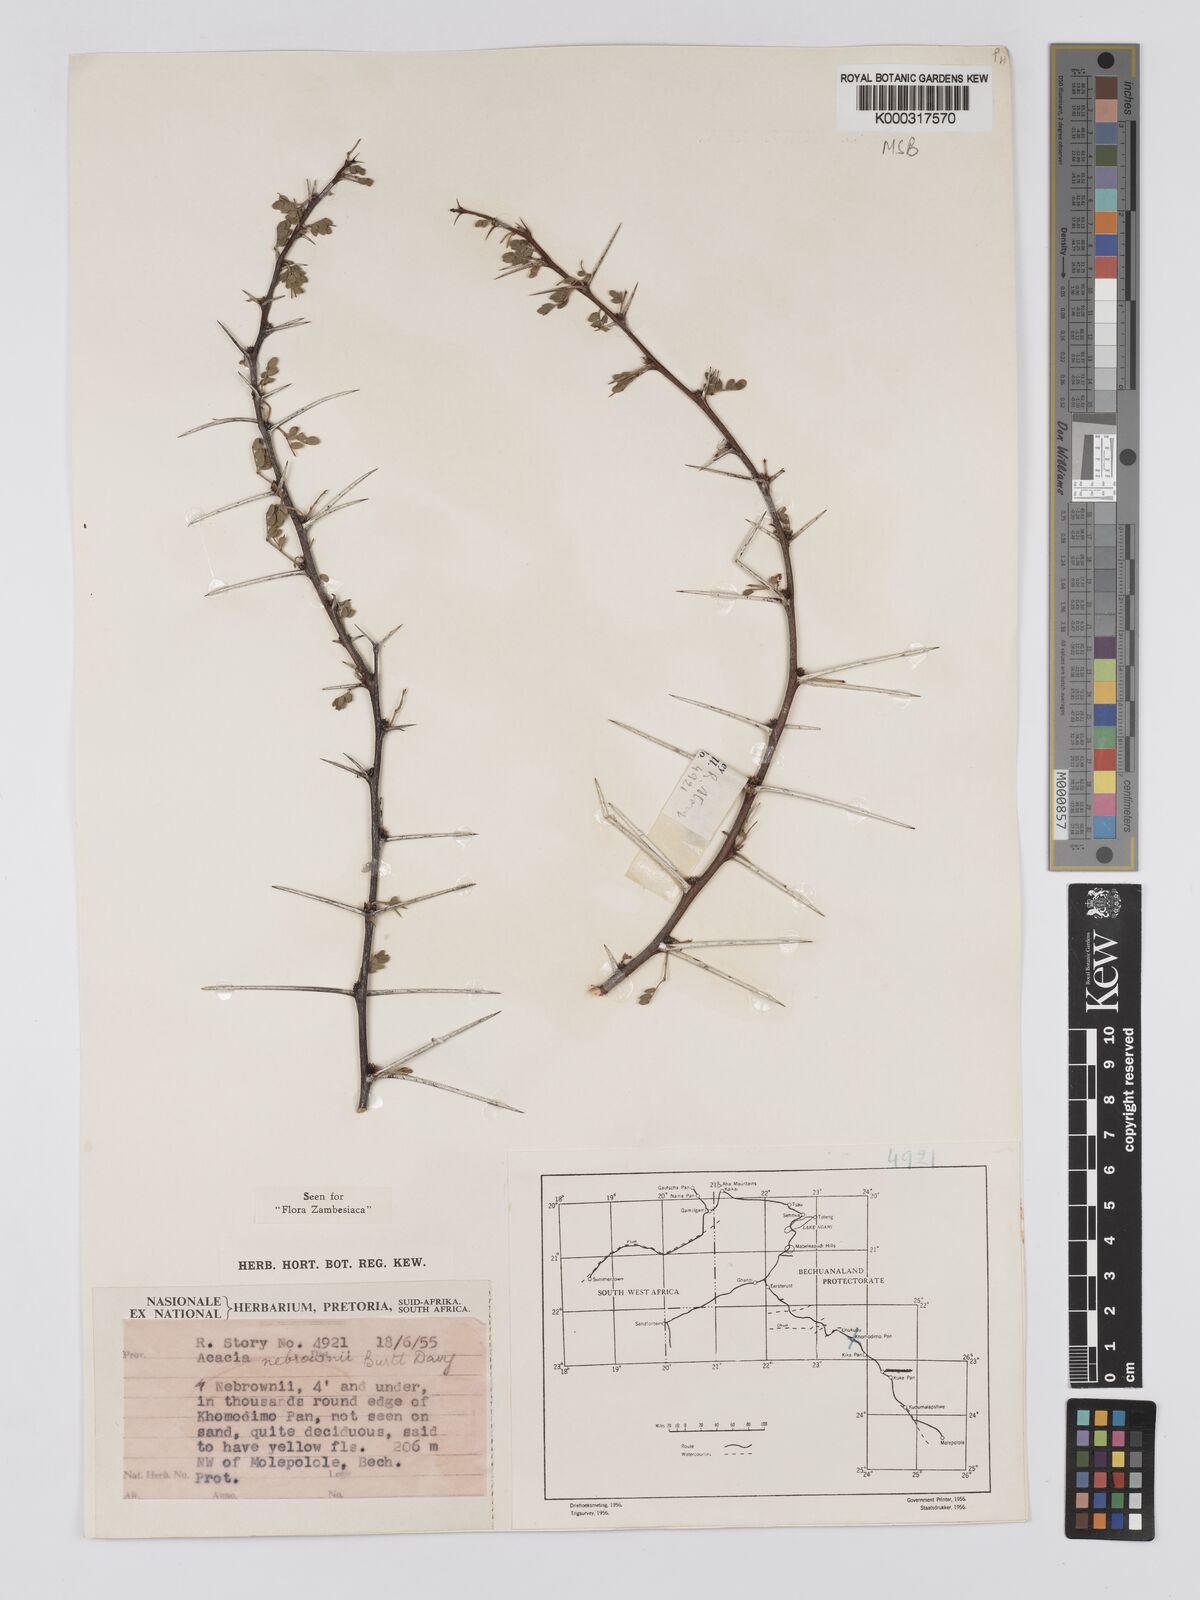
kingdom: Plantae
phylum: Tracheophyta
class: Magnoliopsida
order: Fabales
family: Fabaceae
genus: Vachellia
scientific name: Vachellia nebrownii
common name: Water acacia
